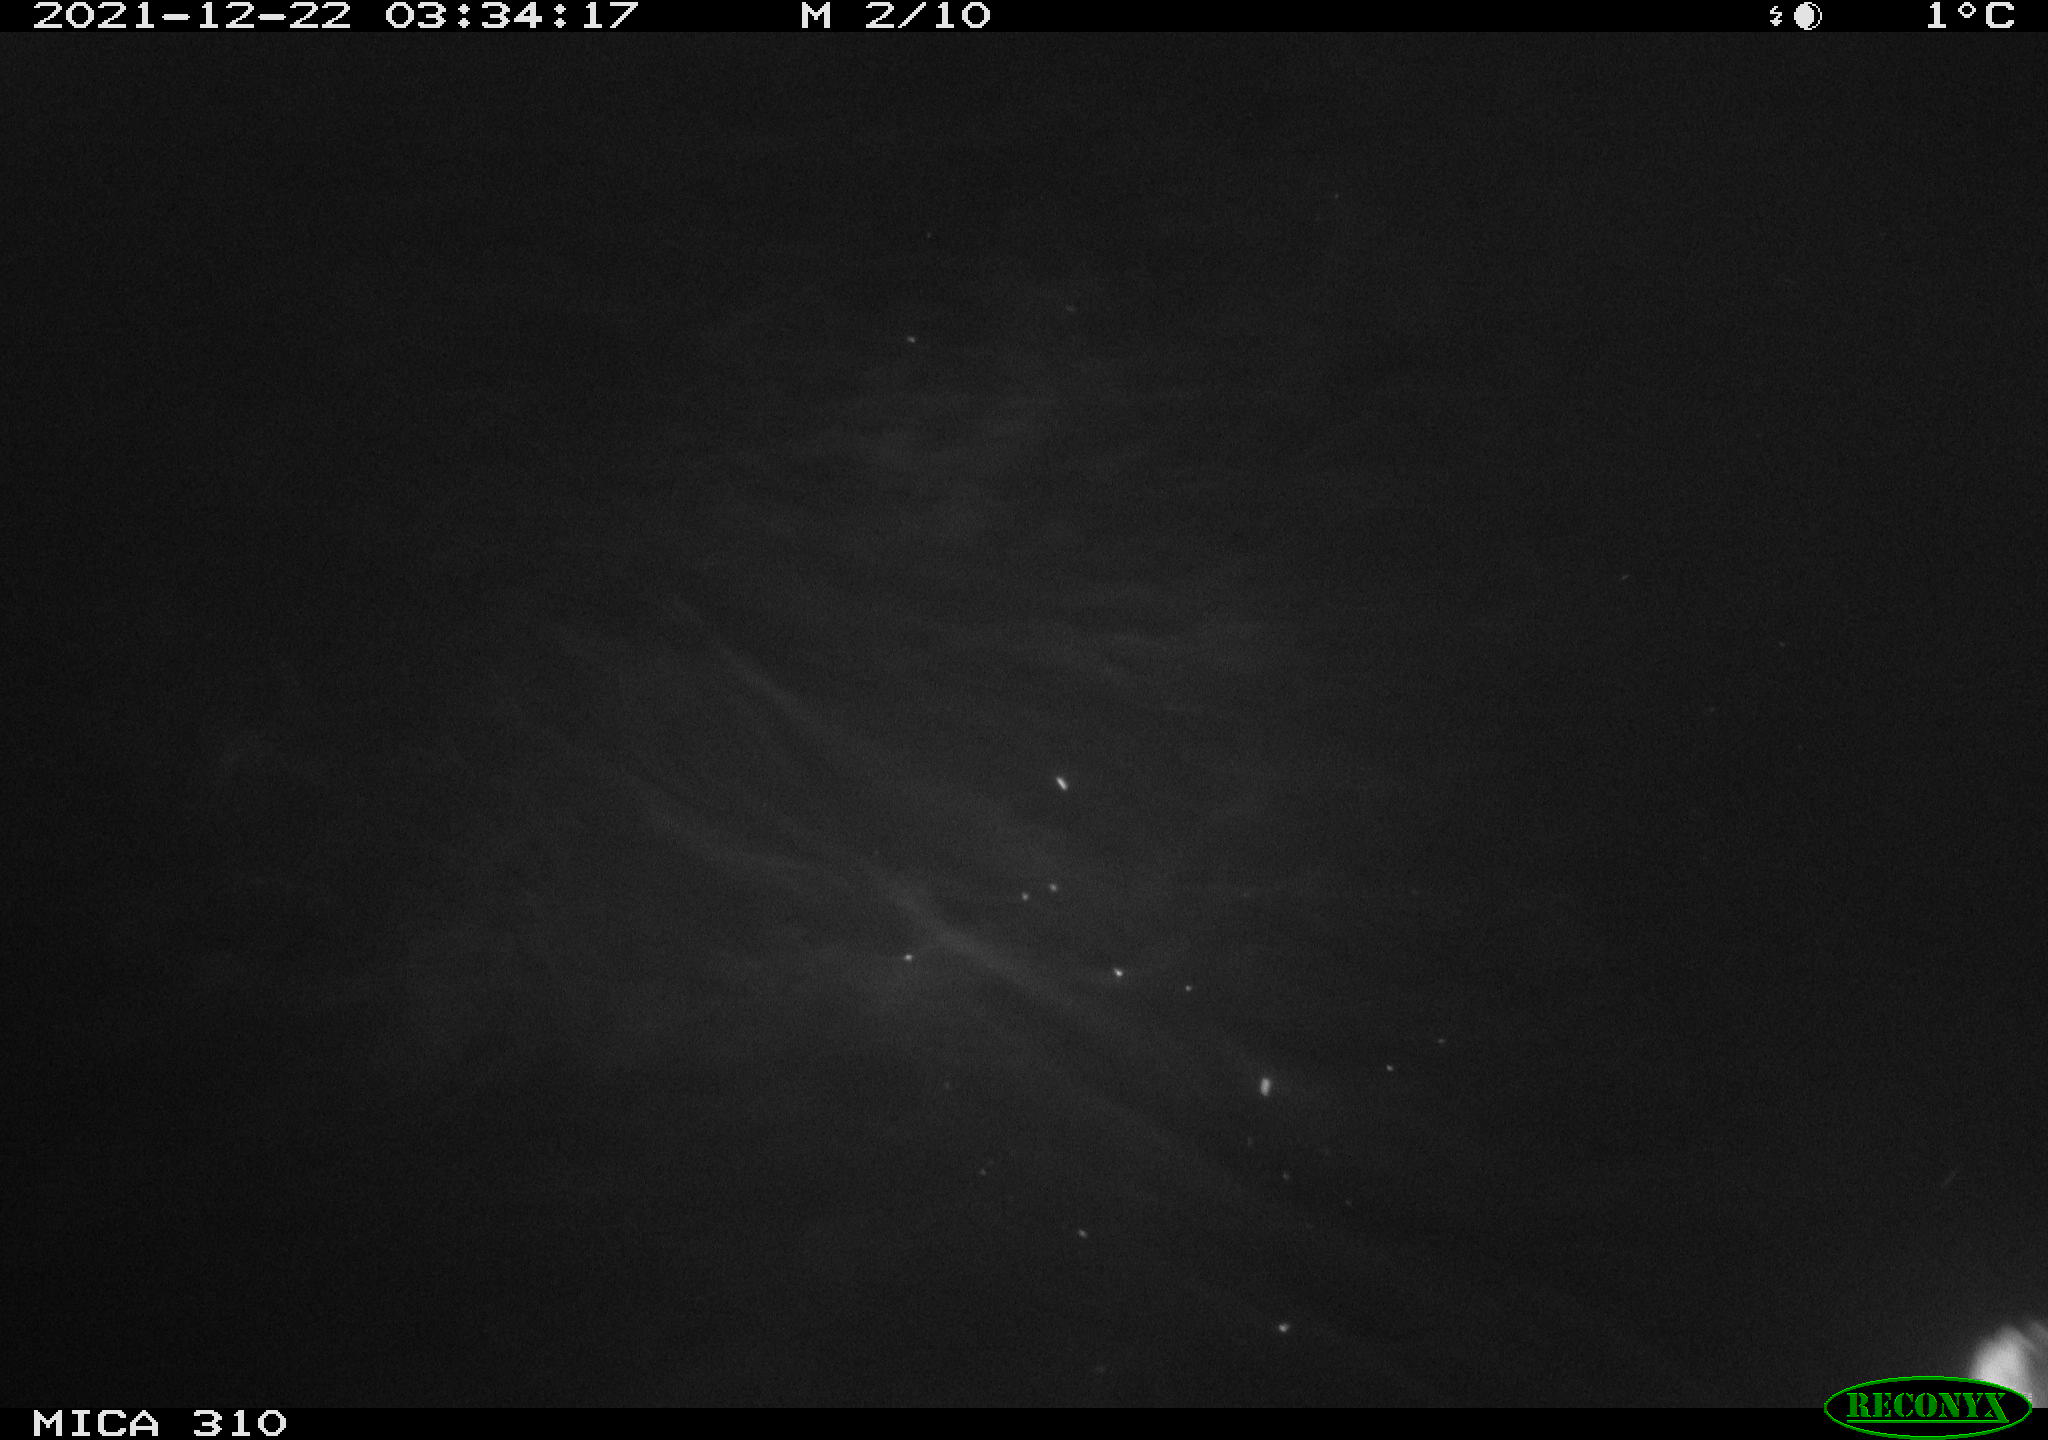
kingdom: Animalia
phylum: Chordata
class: Aves
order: Anseriformes
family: Anatidae
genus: Anas
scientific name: Anas platyrhynchos
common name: Mallard
